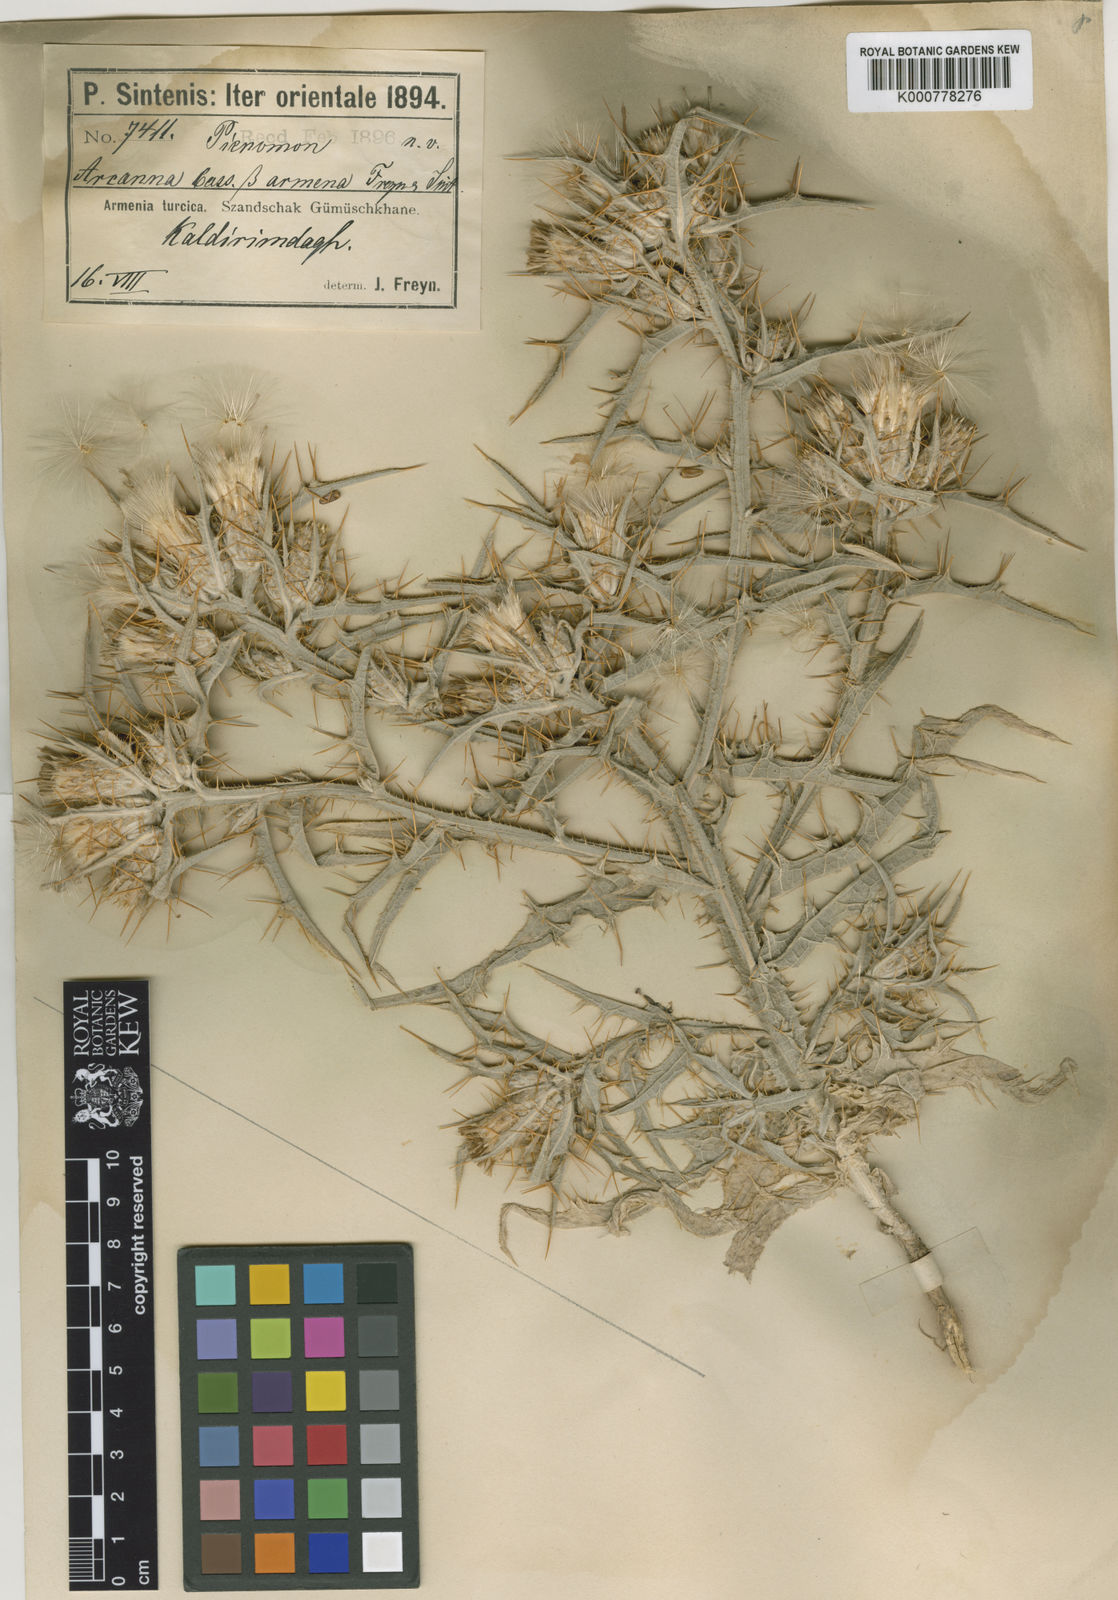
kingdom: Plantae
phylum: Tracheophyta
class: Magnoliopsida
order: Asterales
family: Asteraceae
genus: Picnomon
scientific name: Picnomon acarna
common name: Soldier thistle
